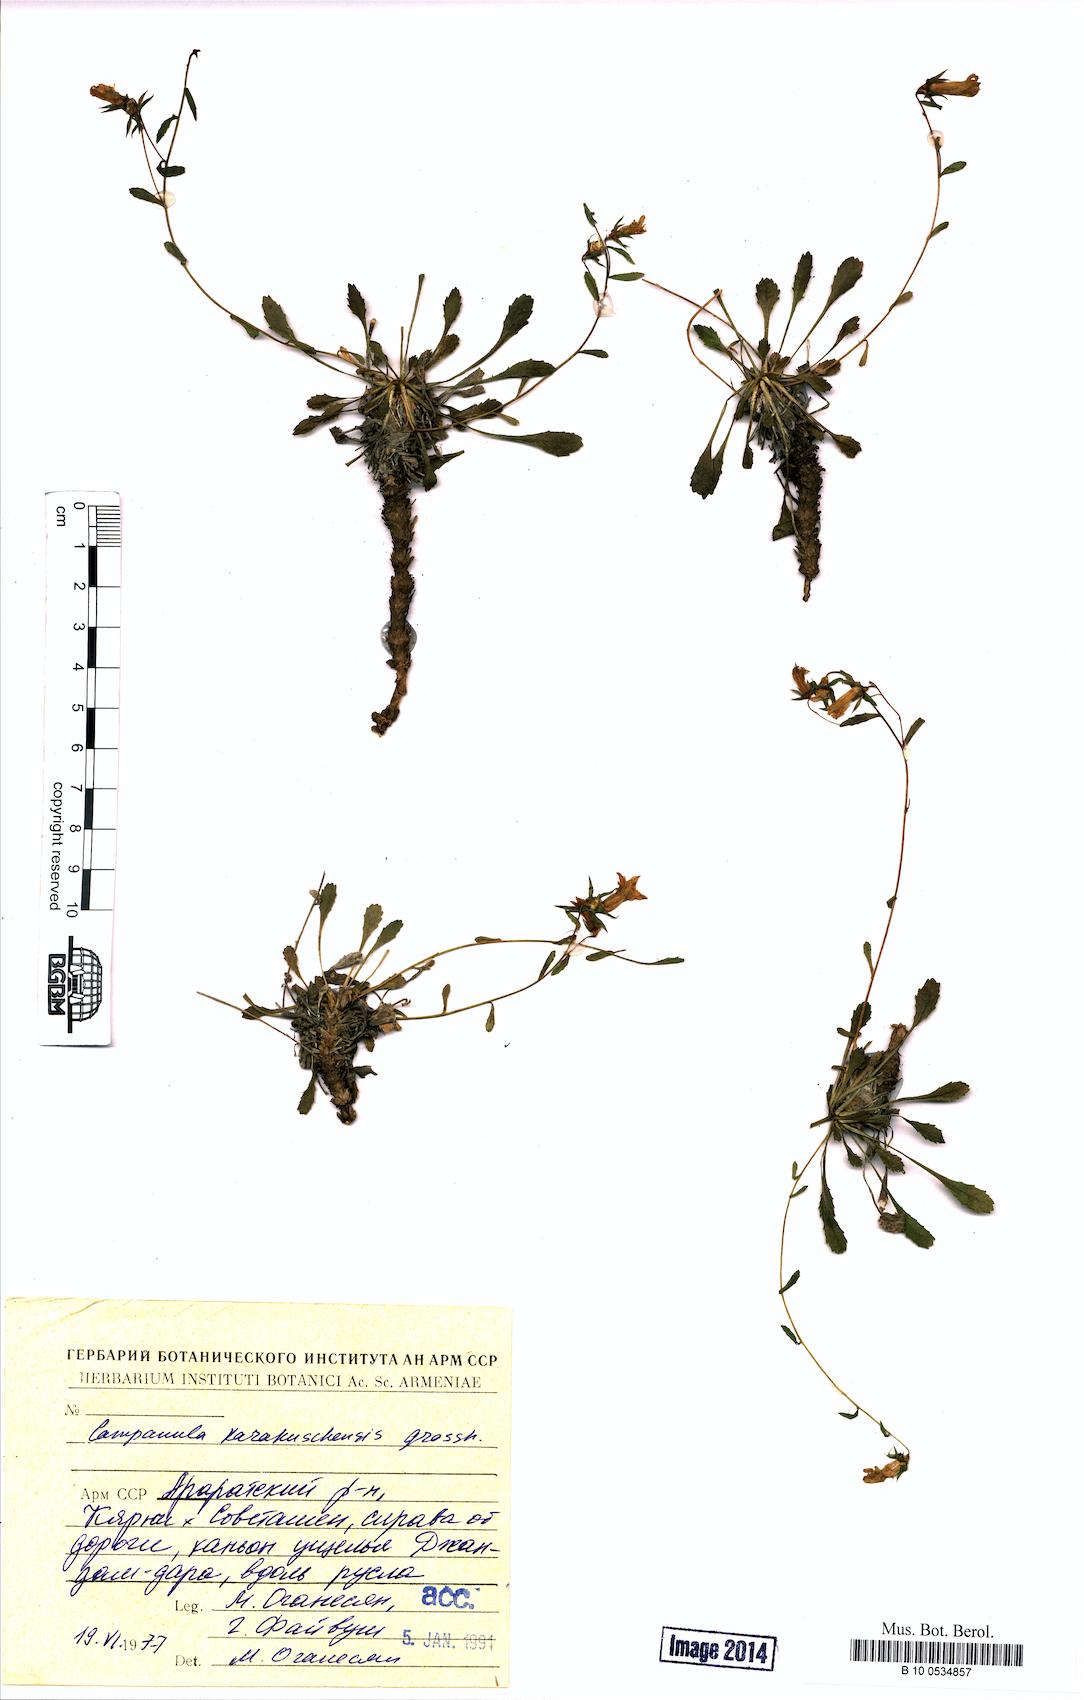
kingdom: Plantae
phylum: Tracheophyta
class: Magnoliopsida
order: Asterales
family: Campanulaceae
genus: Campanula
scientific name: Campanula karakuschensis
